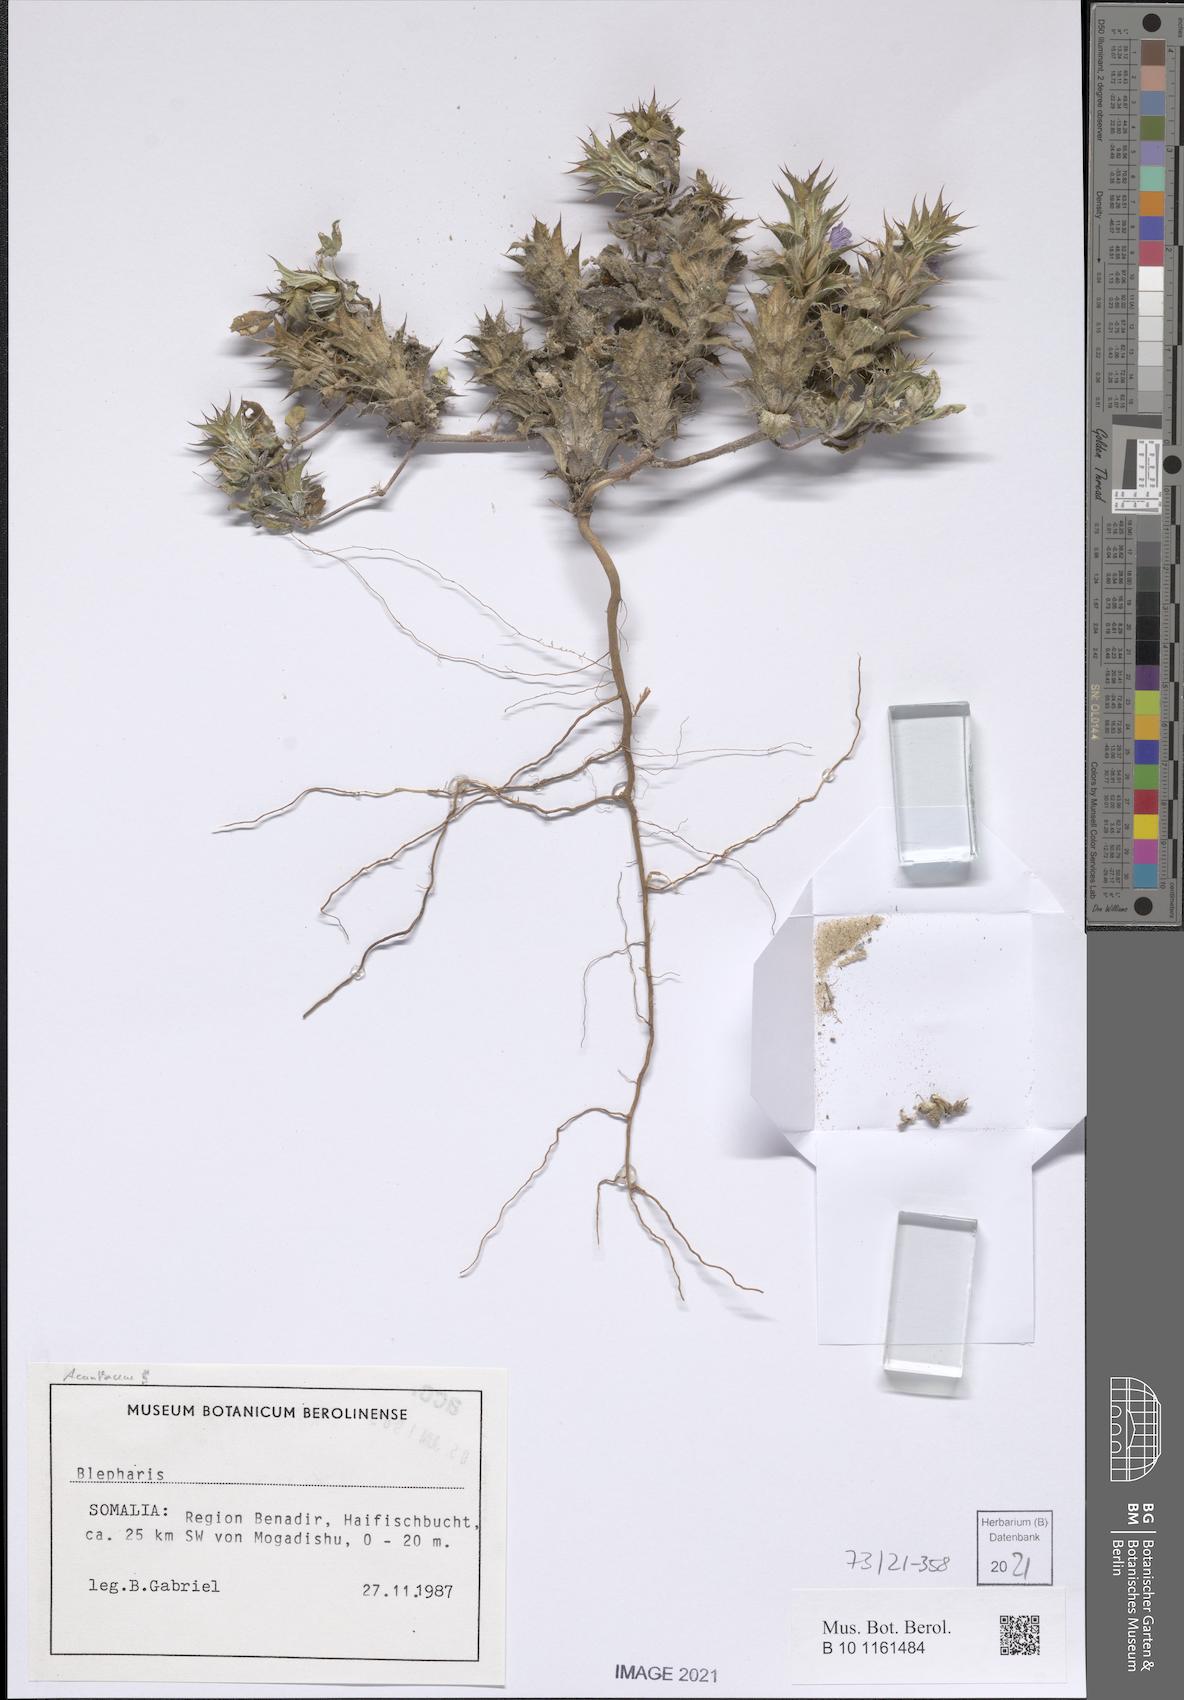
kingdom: Plantae
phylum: Tracheophyta
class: Magnoliopsida
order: Lamiales
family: Acanthaceae
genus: Blepharis
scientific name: Blepharis edulis
